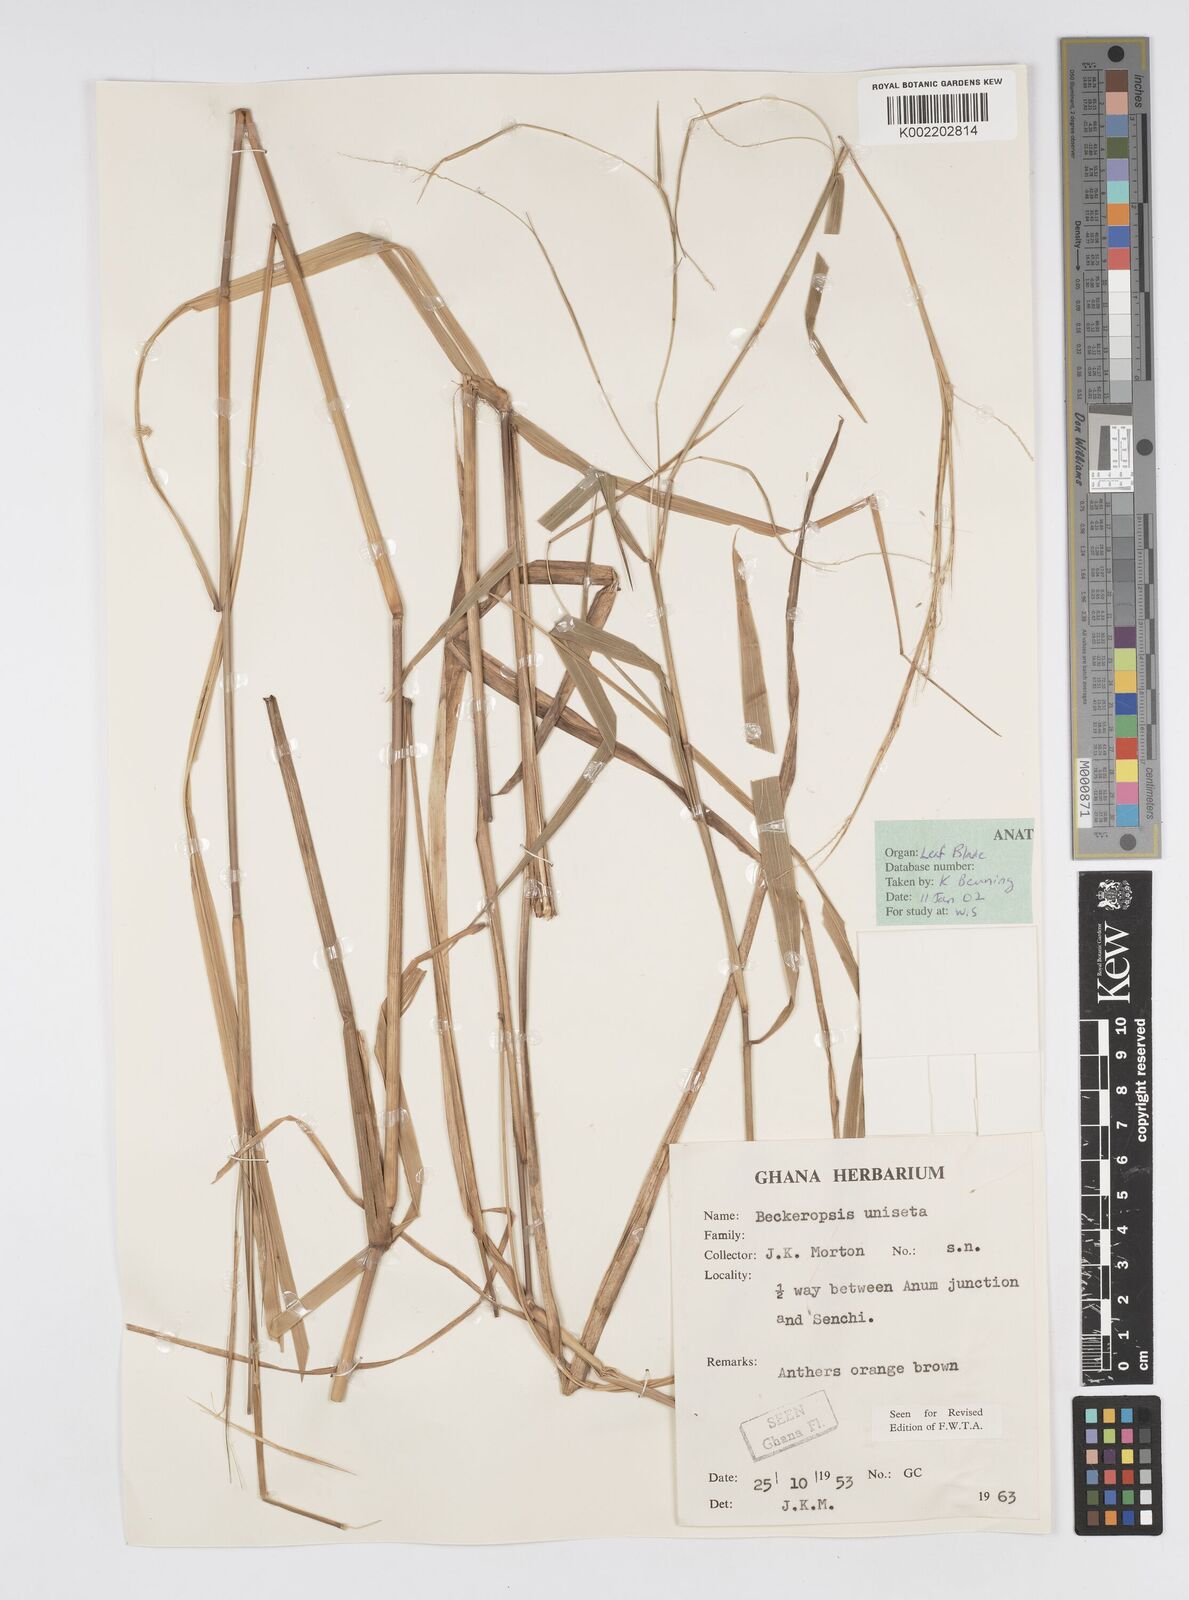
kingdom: Plantae
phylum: Tracheophyta
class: Liliopsida
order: Poales
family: Poaceae
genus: Cenchrus
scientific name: Cenchrus unisetus
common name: Natal grass
